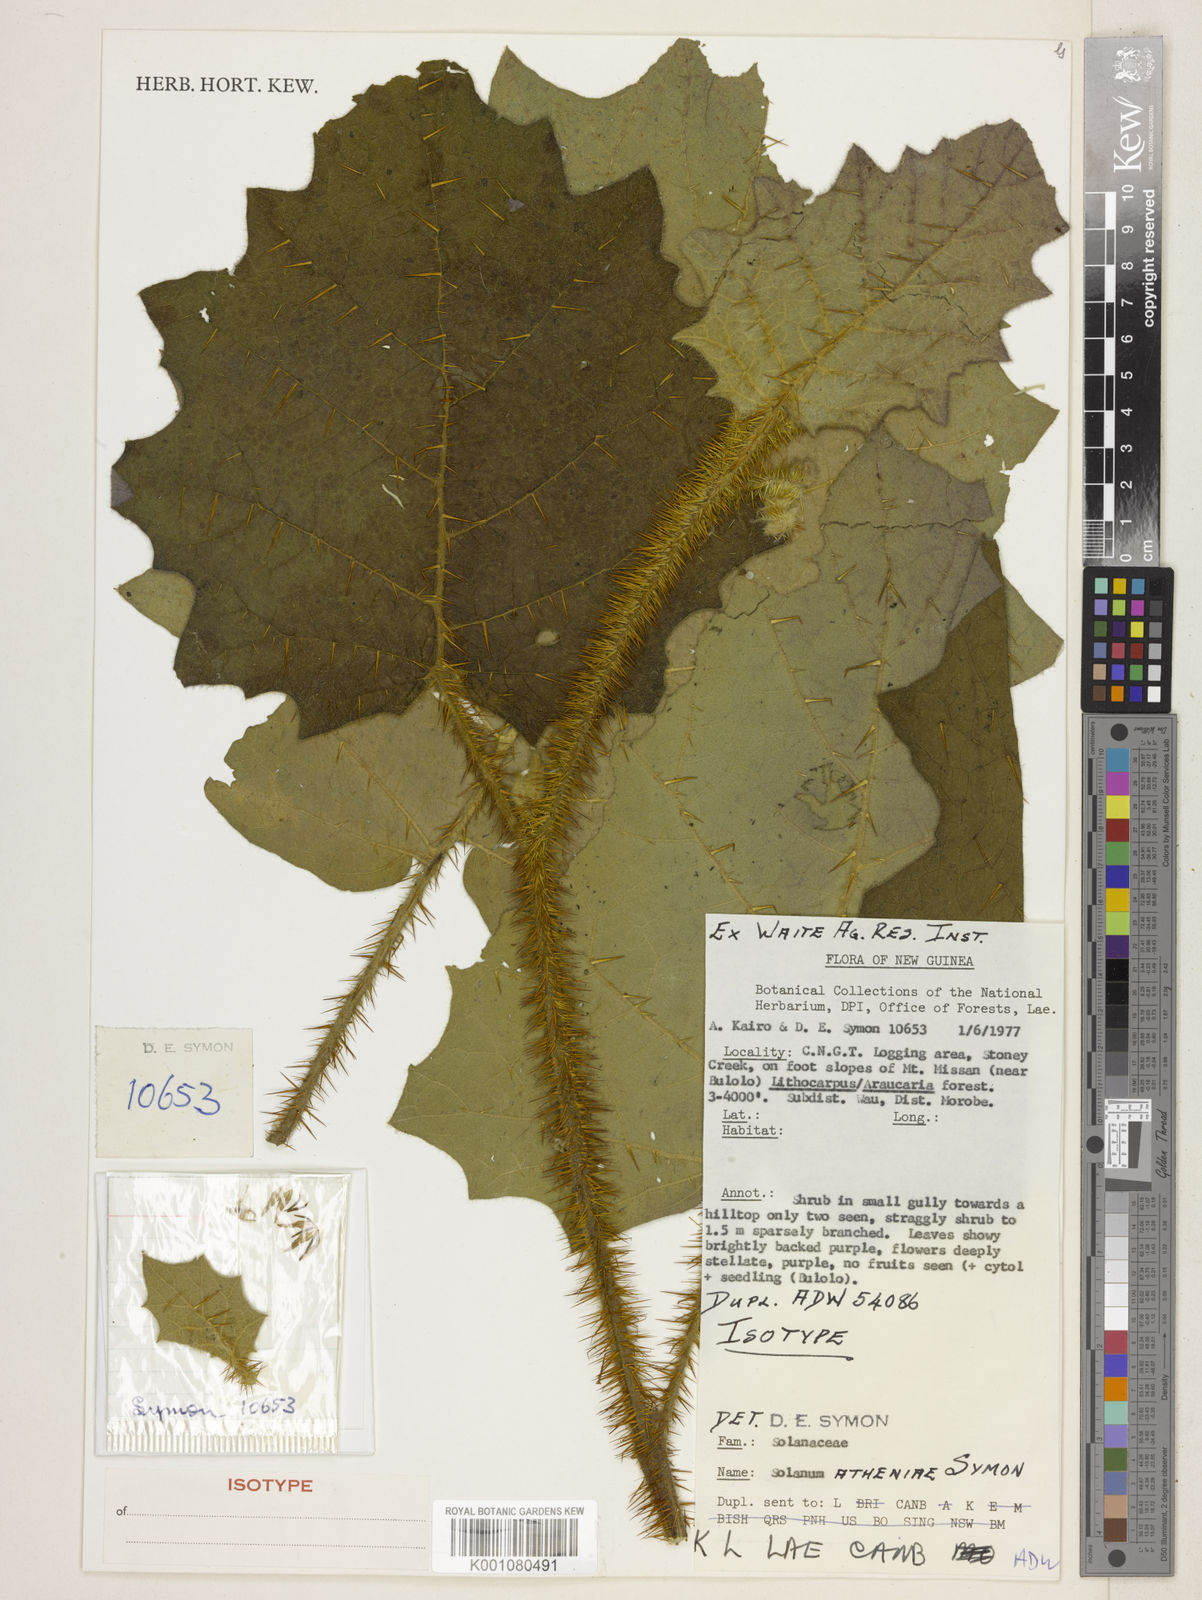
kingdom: Plantae
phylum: Tracheophyta
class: Magnoliopsida
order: Solanales
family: Solanaceae
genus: Solanum
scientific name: Solanum athenae
